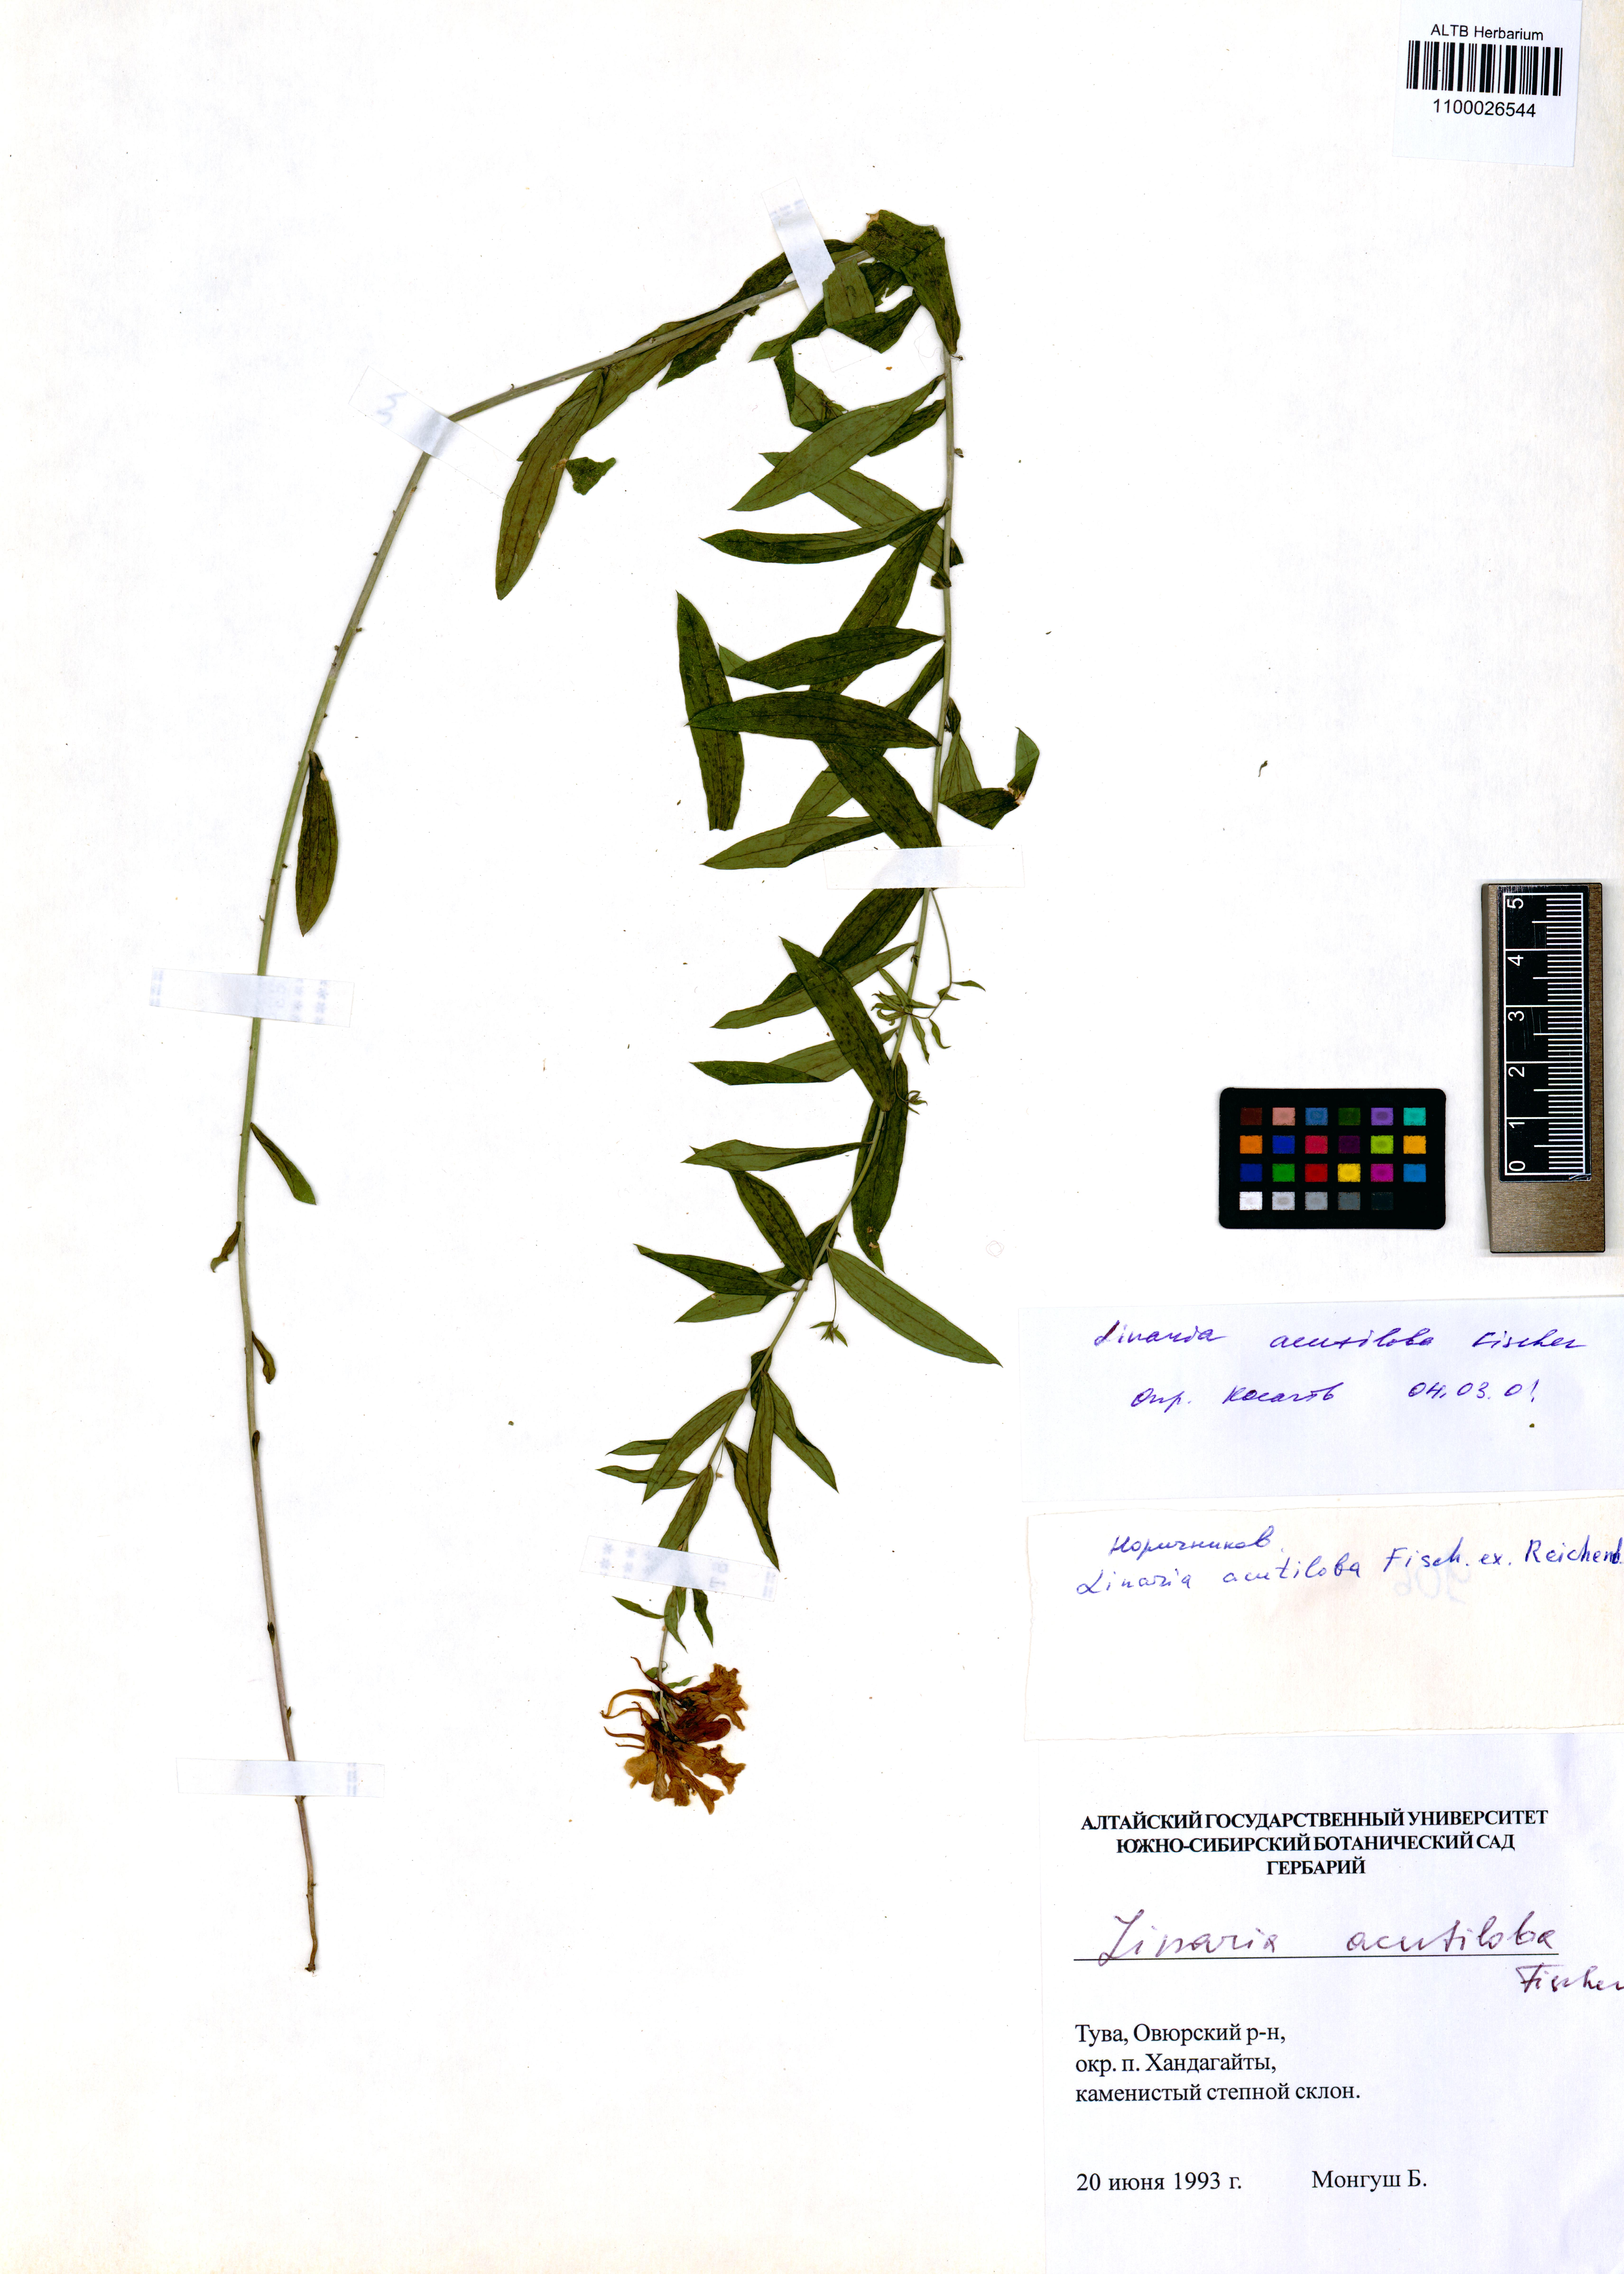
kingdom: Plantae
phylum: Tracheophyta
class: Magnoliopsida
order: Lamiales
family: Plantaginaceae
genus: Linaria
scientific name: Linaria acutiloba
